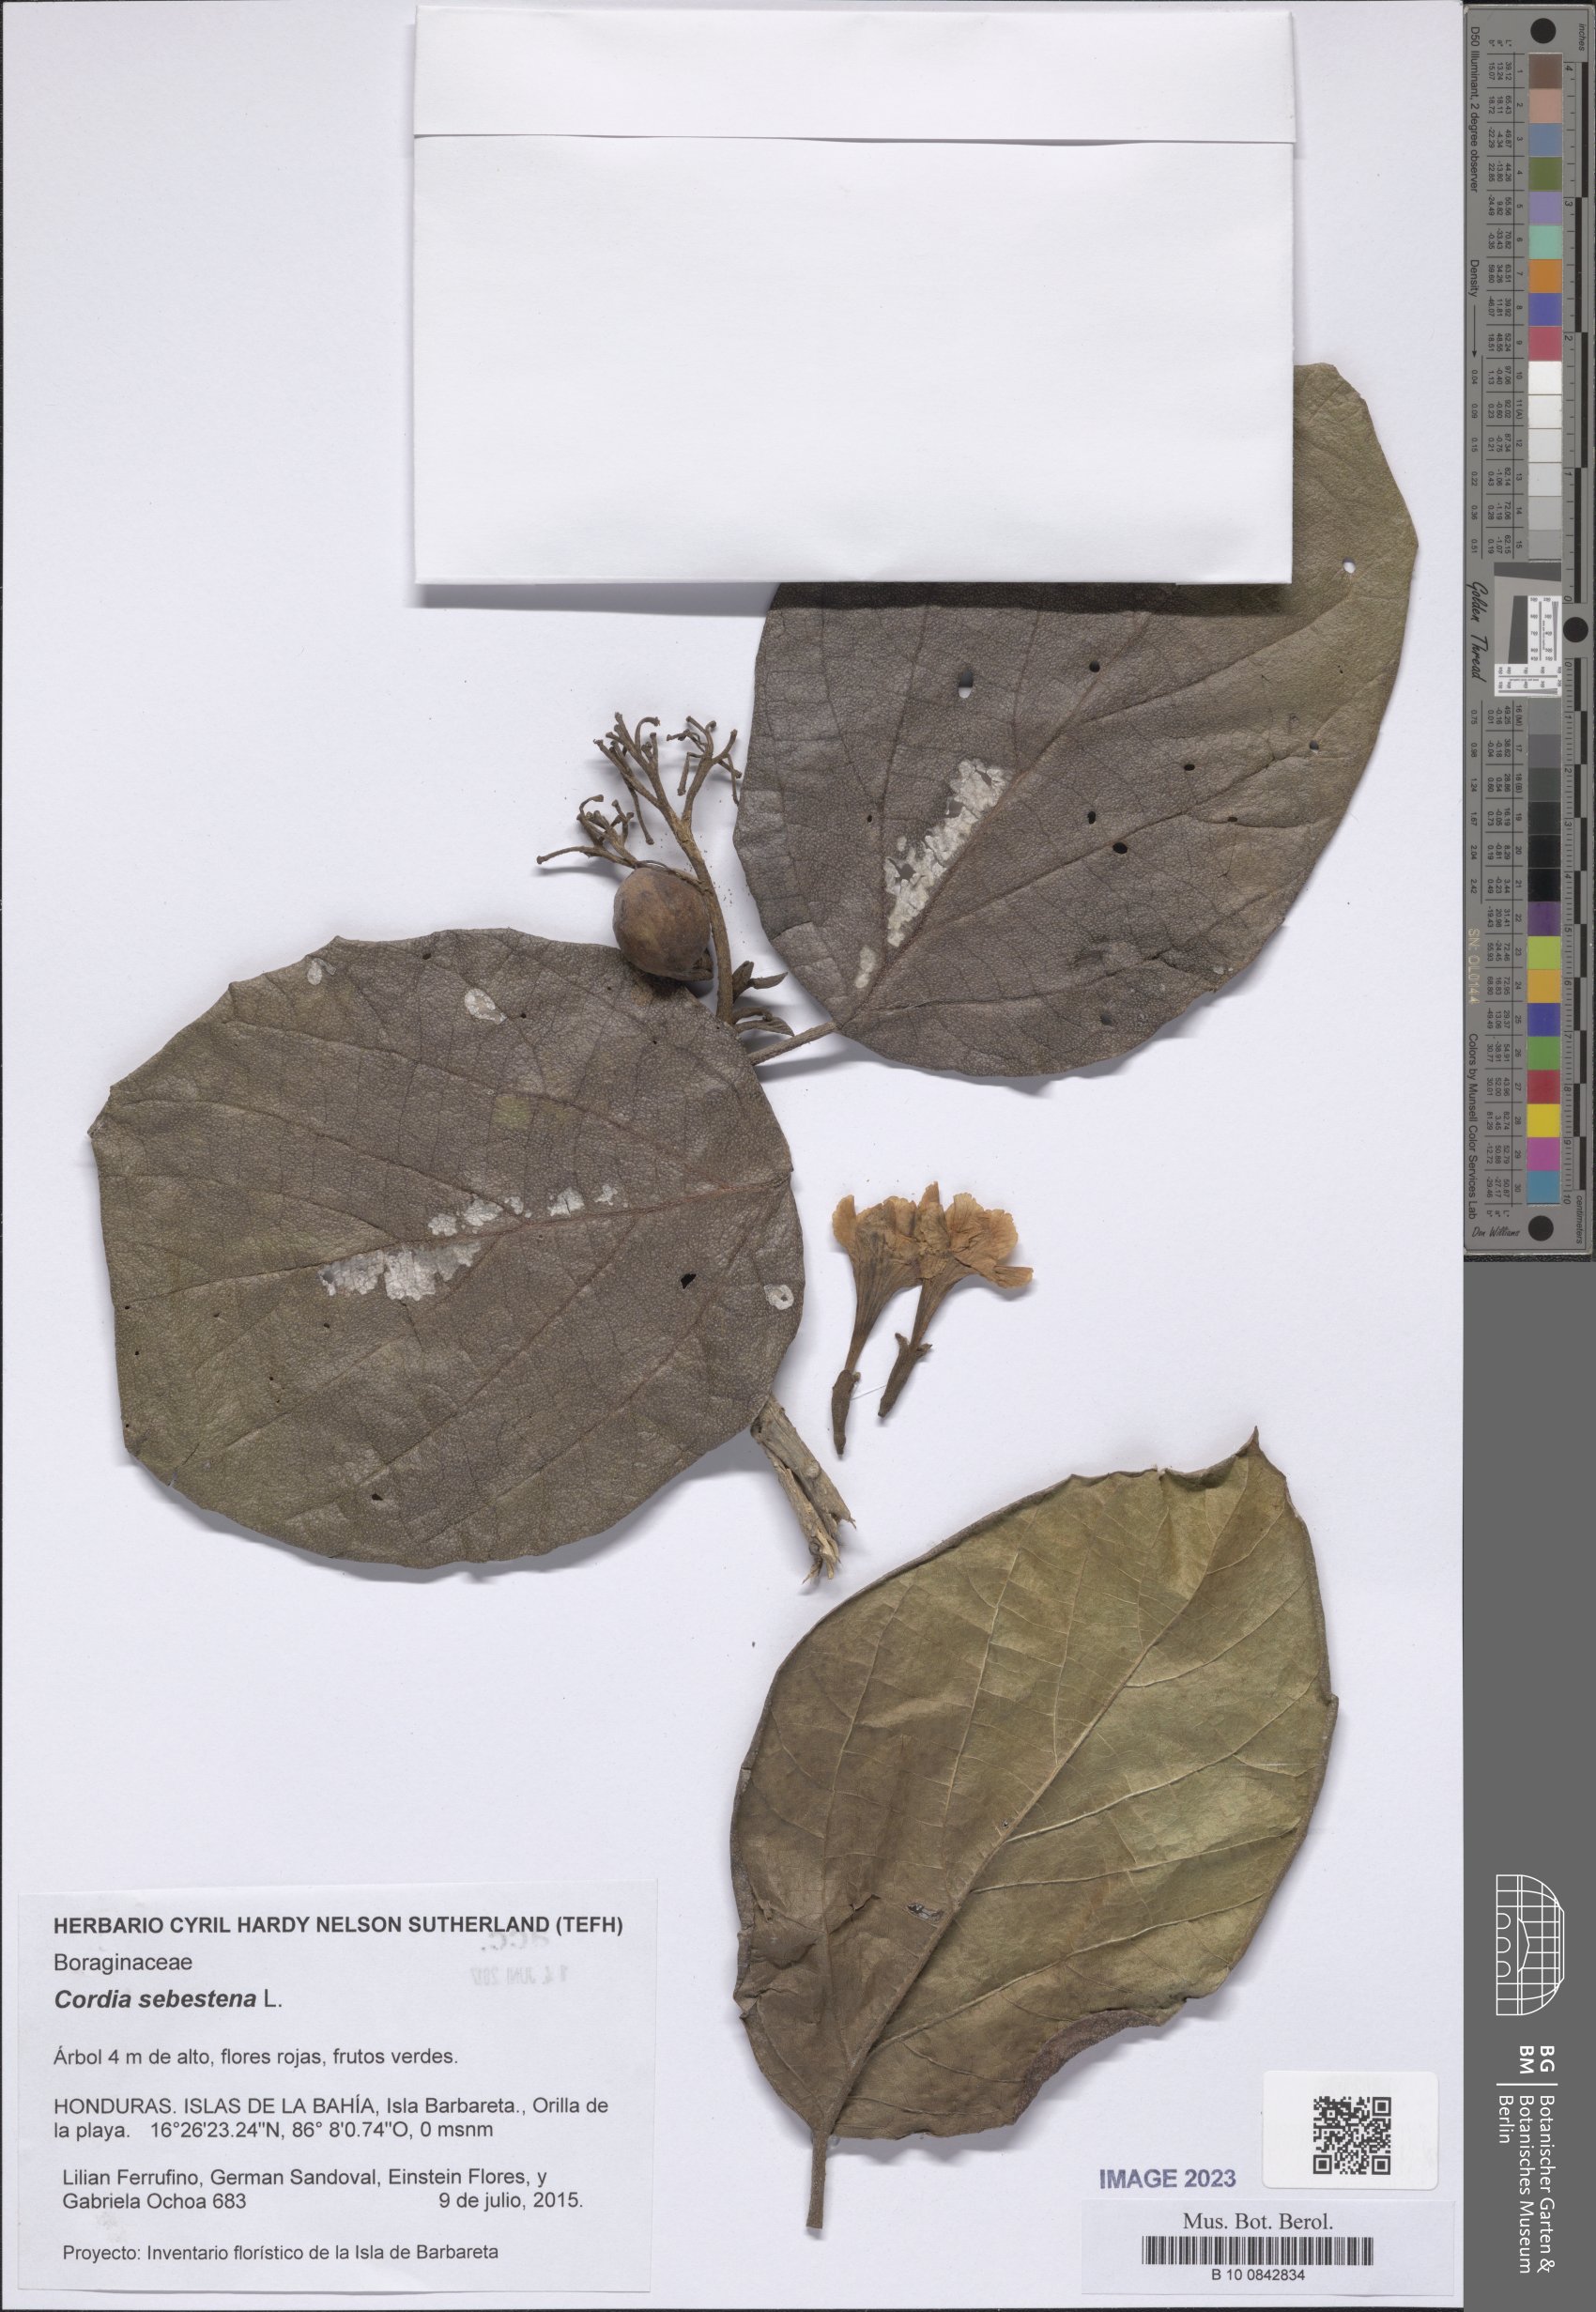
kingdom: Plantae
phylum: Tracheophyta
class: Magnoliopsida
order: Boraginales
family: Cordiaceae
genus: Cordia
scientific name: Cordia sebestena
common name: Largeleaf geigertree
